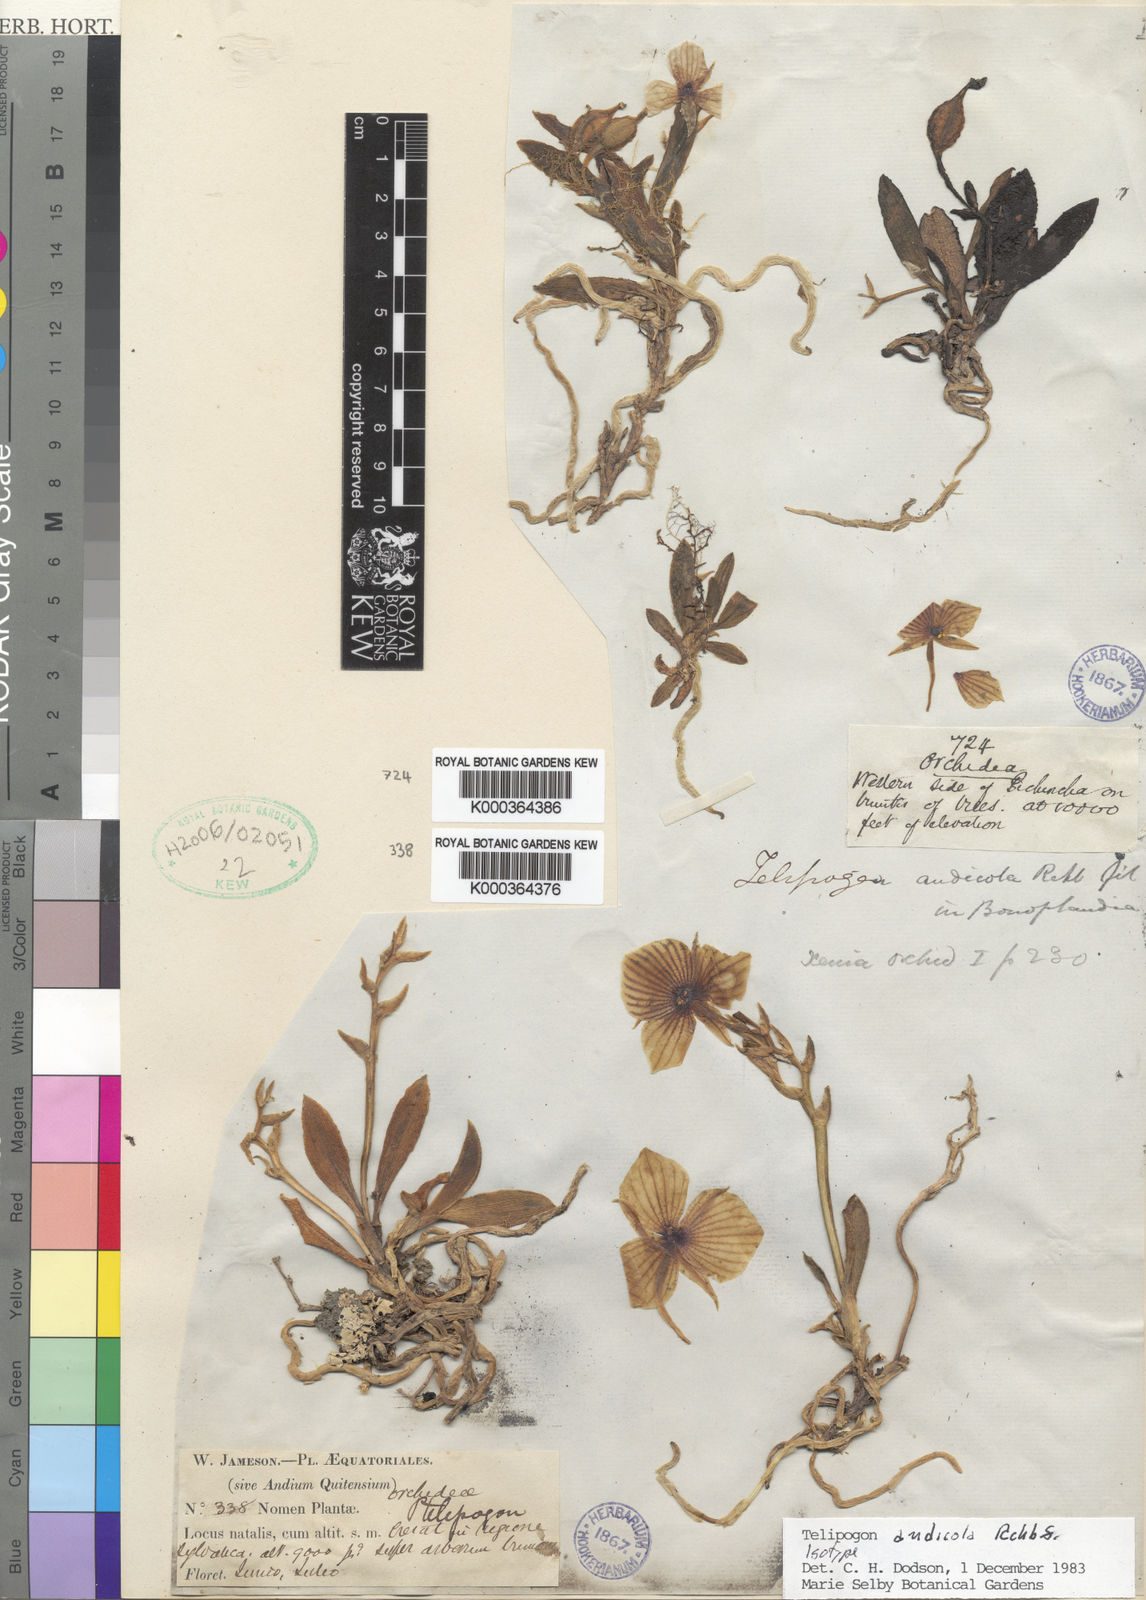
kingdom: Plantae
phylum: Tracheophyta
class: Liliopsida
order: Asparagales
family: Orchidaceae
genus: Telipogon
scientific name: Telipogon andicola
